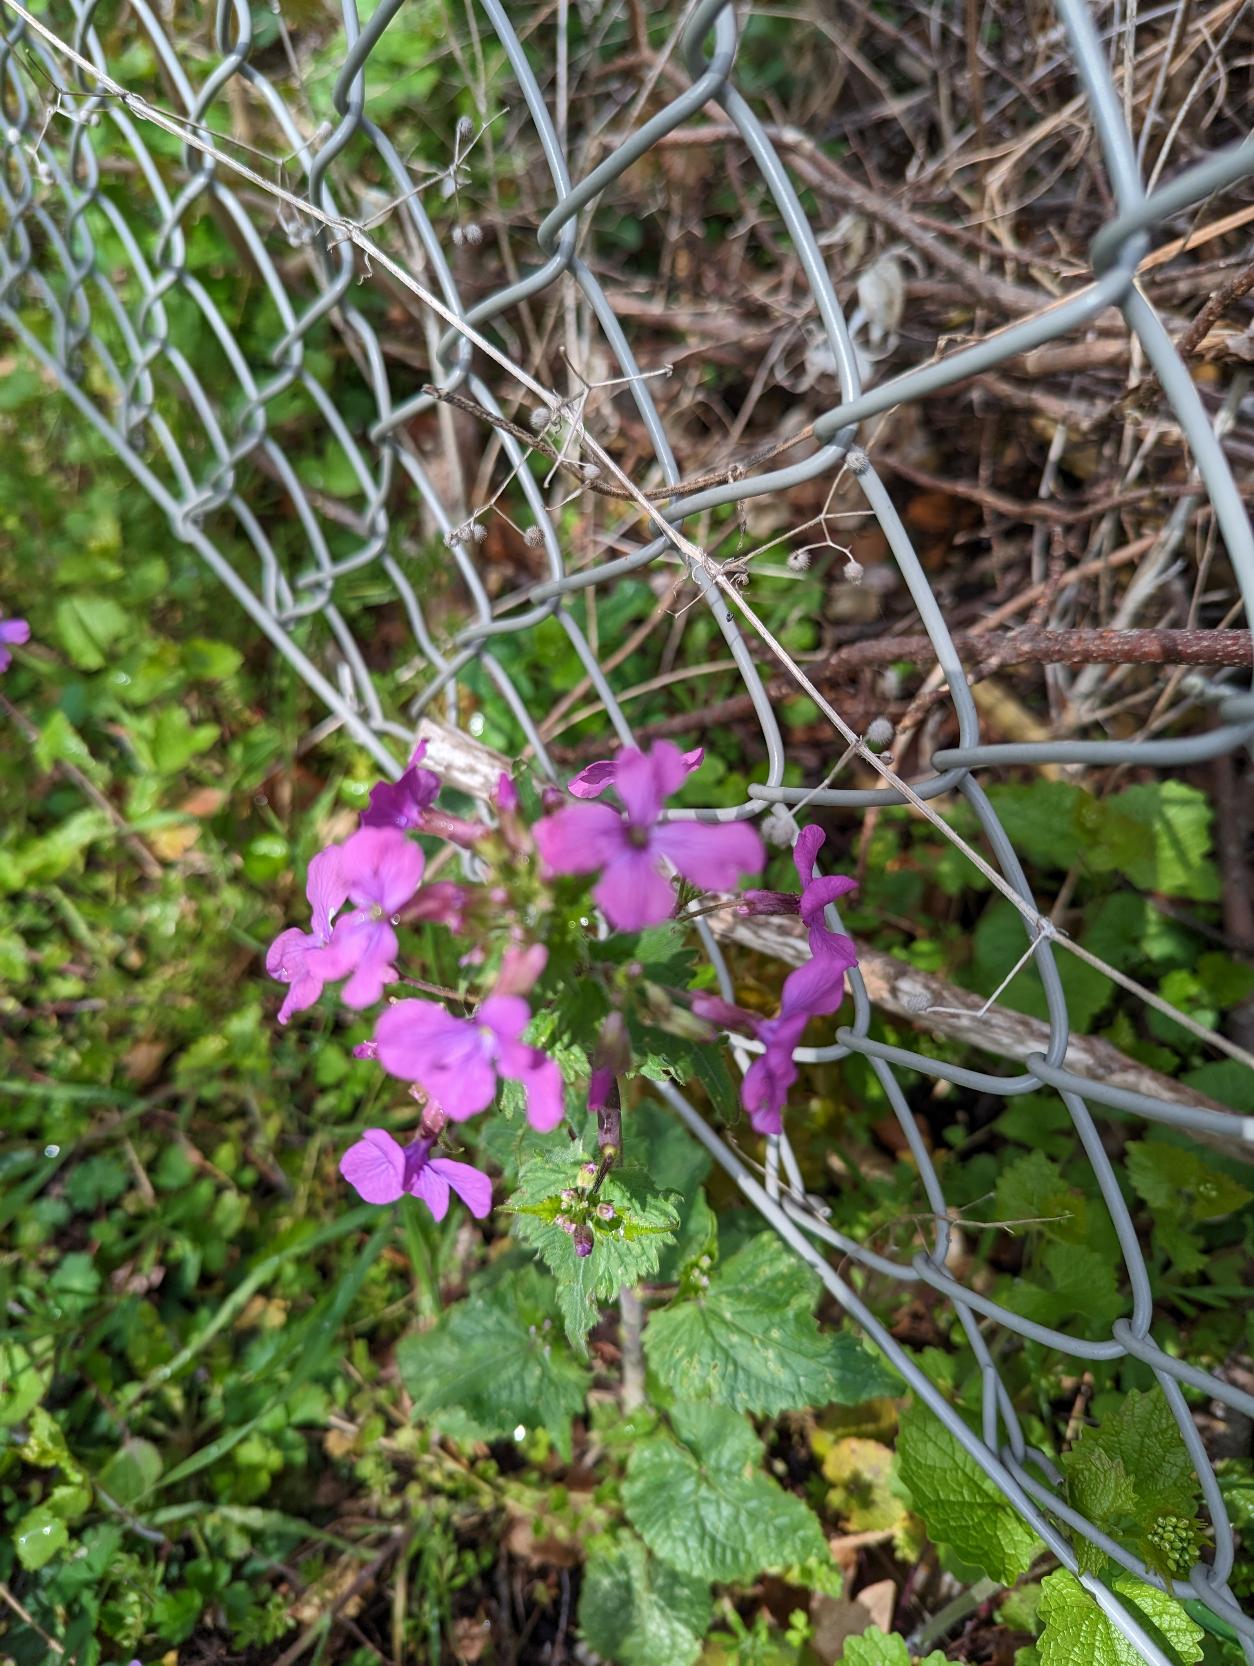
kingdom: Plantae
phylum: Tracheophyta
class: Magnoliopsida
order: Brassicales
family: Brassicaceae
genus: Lunaria
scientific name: Lunaria annua
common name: Judaspenge
